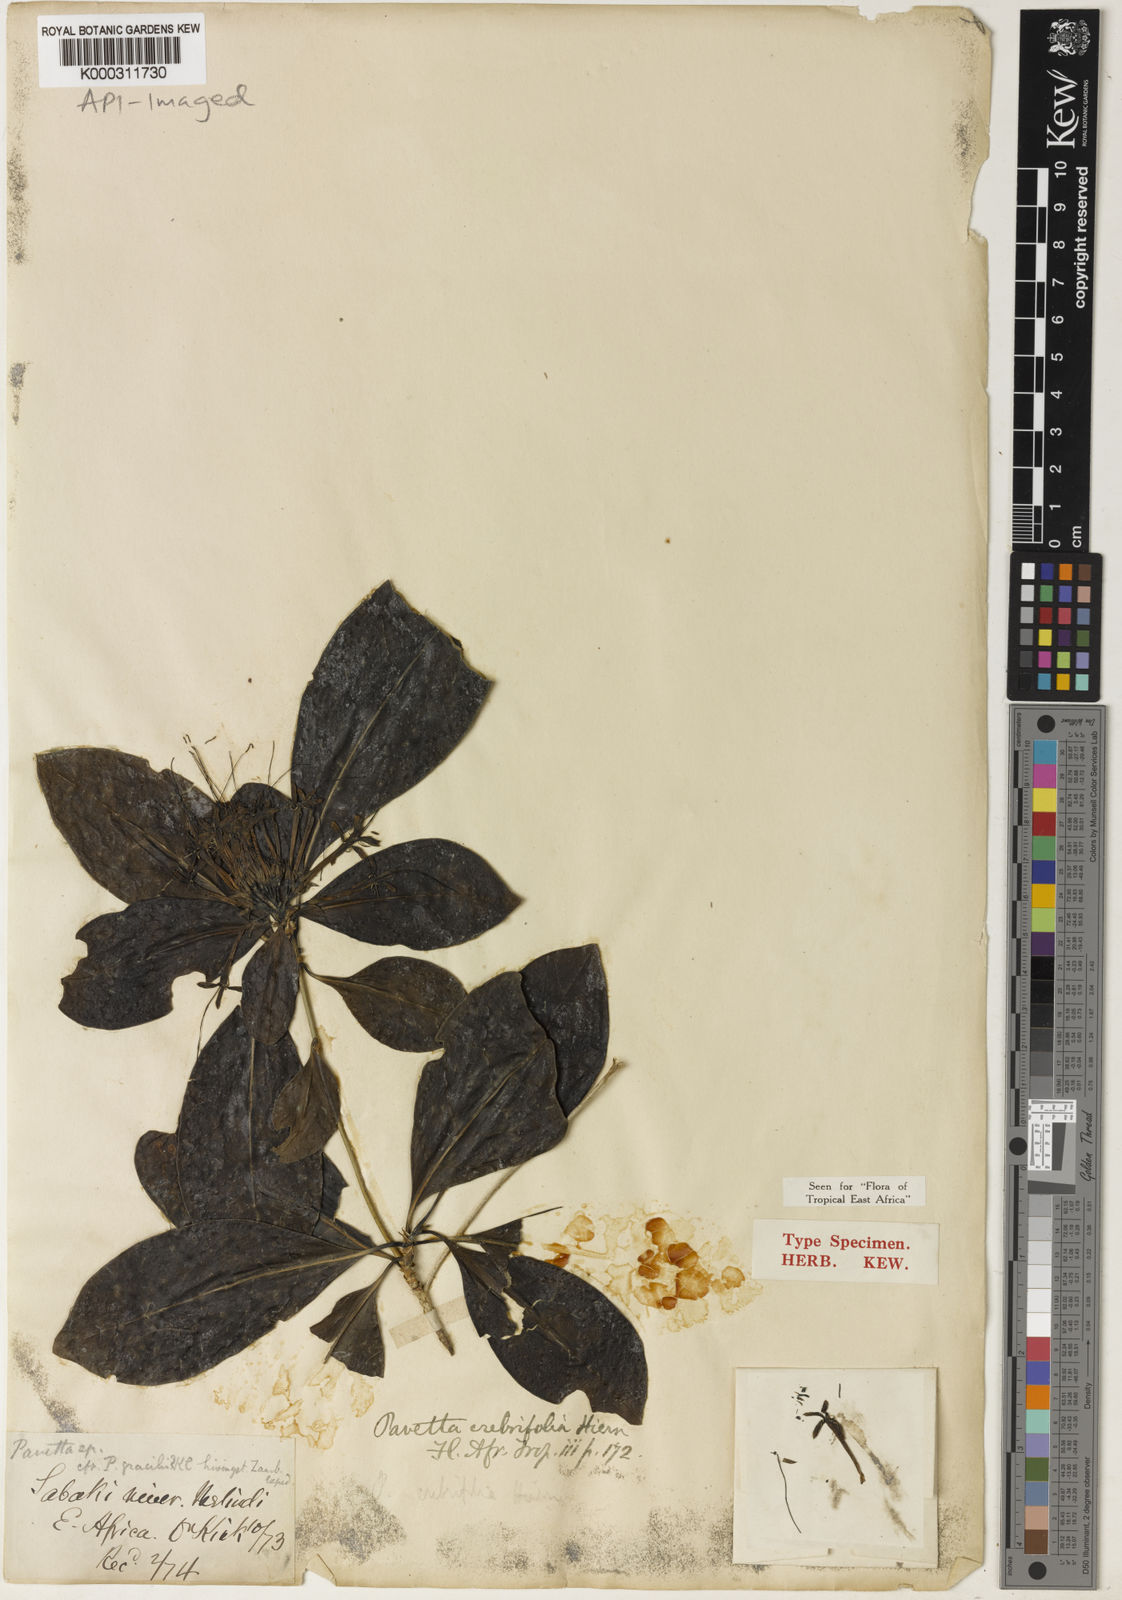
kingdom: Plantae
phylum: Tracheophyta
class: Magnoliopsida
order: Gentianales
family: Rubiaceae
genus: Pavetta
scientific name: Pavetta crebrifolia
